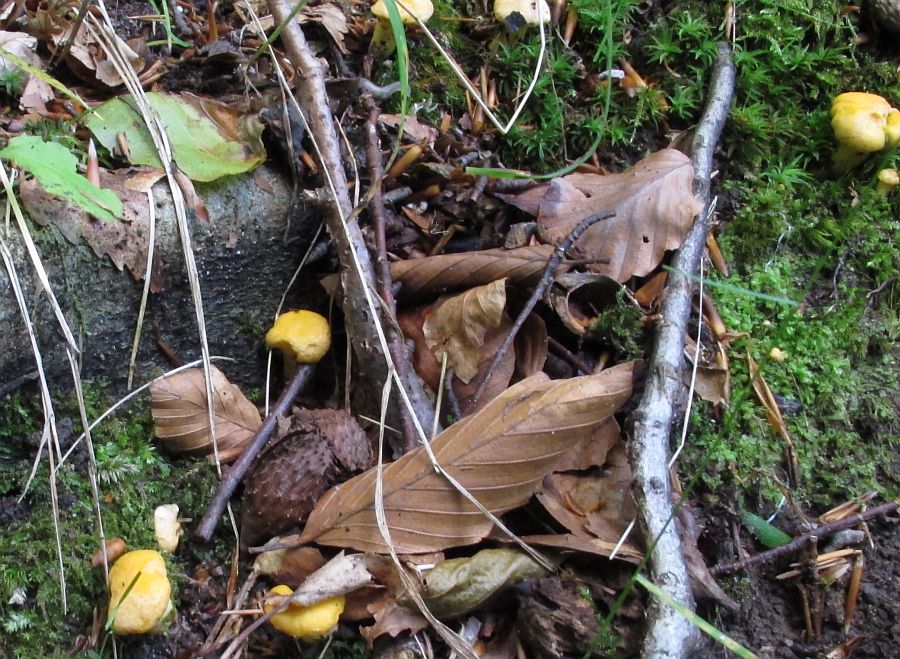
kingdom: Fungi
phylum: Basidiomycota
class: Agaricomycetes
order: Cantharellales
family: Hydnaceae
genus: Cantharellus
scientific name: Cantharellus pallens
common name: bleg kantarel
